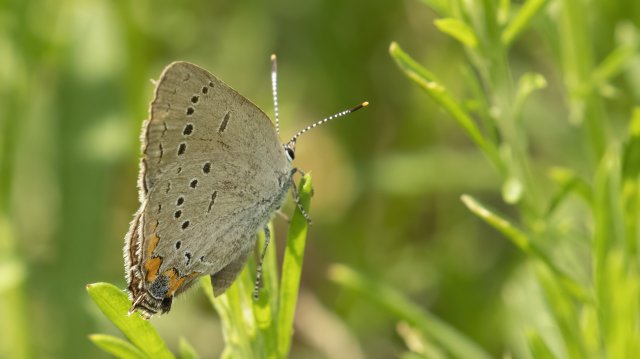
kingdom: Animalia
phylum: Arthropoda
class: Insecta
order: Lepidoptera
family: Lycaenidae
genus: Strymon
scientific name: Strymon acadica
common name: Acadian Hairstreak
